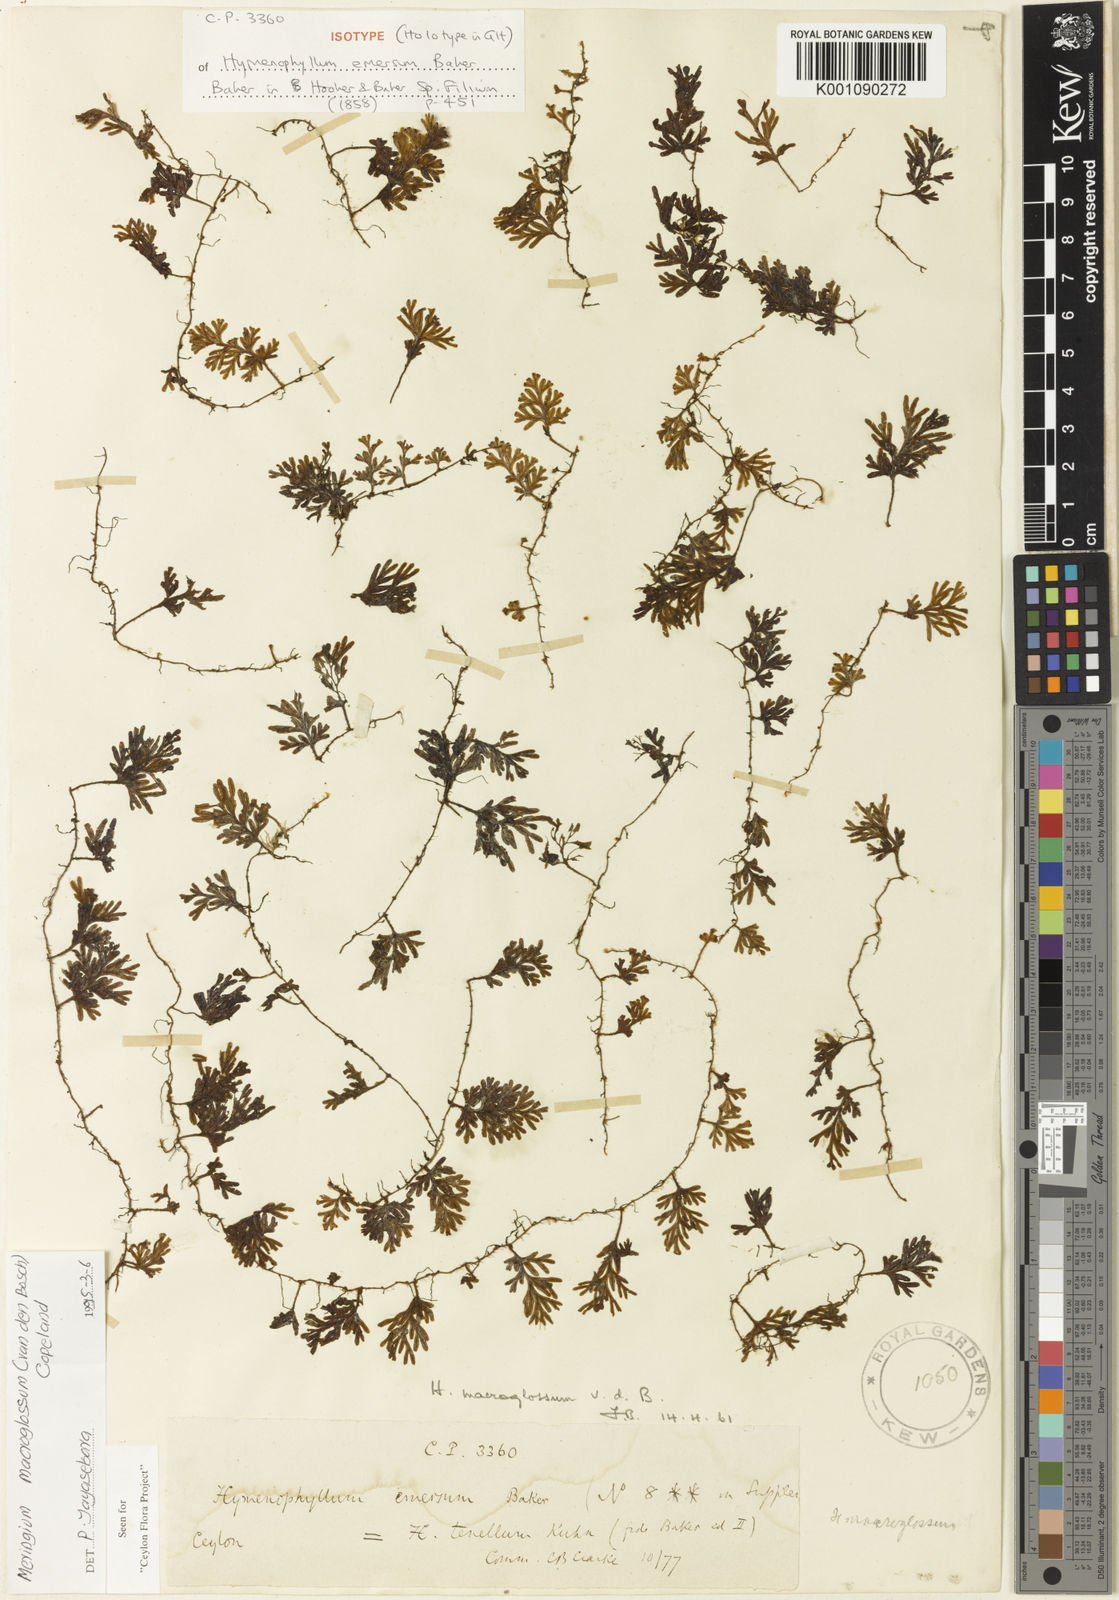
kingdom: Plantae
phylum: Tracheophyta
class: Polypodiopsida
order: Hymenophyllales
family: Hymenophyllaceae
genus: Hymenophyllum
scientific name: Hymenophyllum macroglossum
